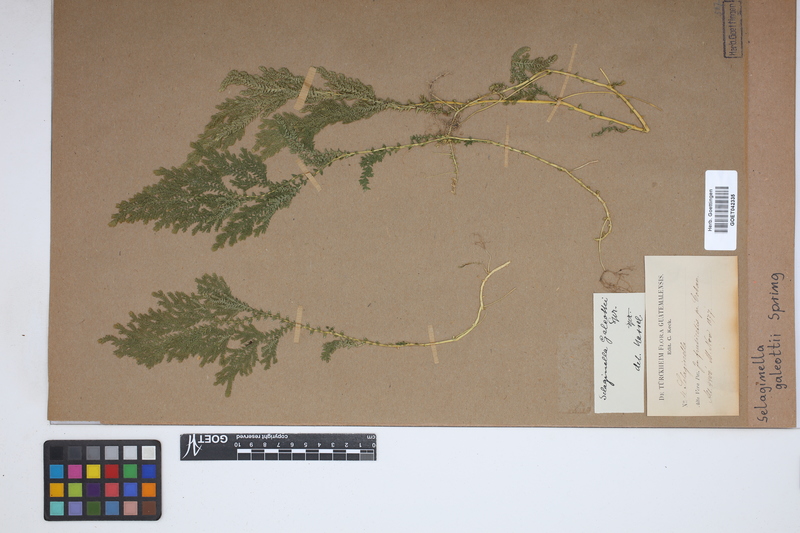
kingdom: Plantae
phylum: Tracheophyta
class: Lycopodiopsida
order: Selaginellales
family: Selaginellaceae
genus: Selaginella
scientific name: Selaginella stellata
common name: Starry spikemoss
